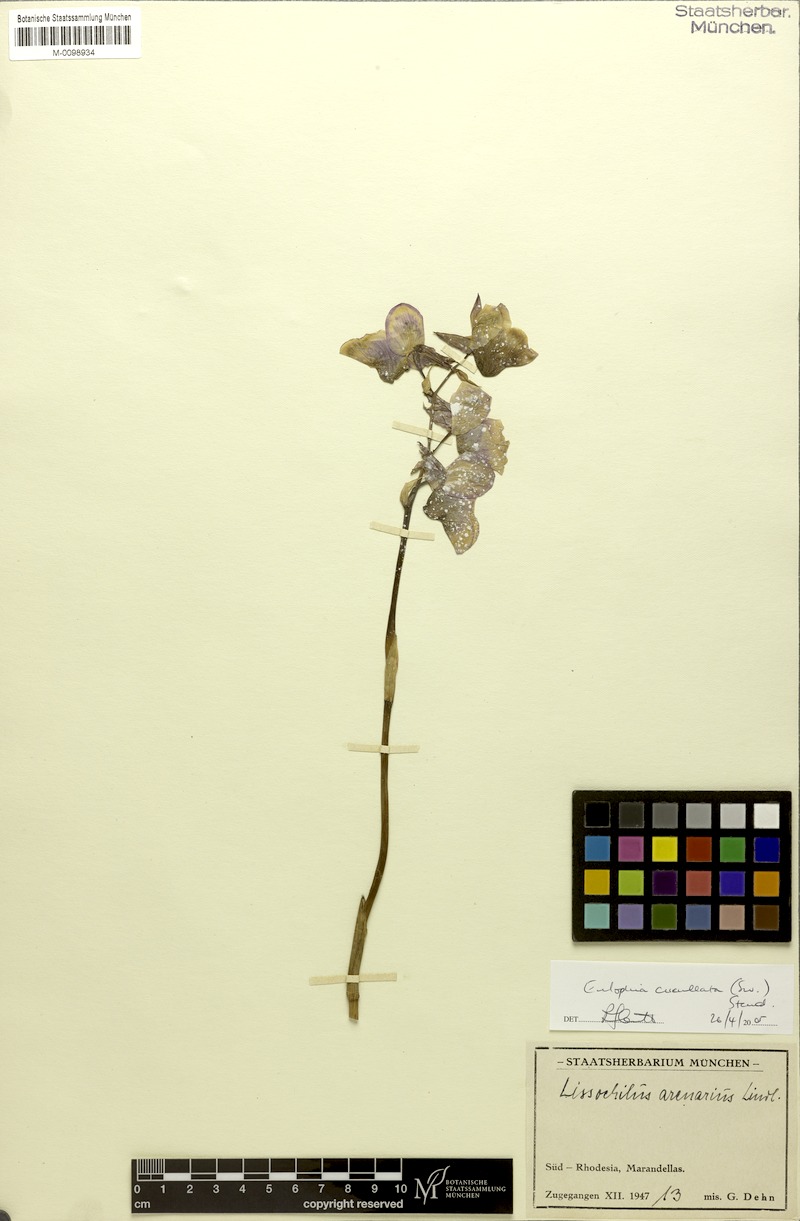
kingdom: Plantae
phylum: Tracheophyta
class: Liliopsida
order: Asparagales
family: Orchidaceae
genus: Eulophia
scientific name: Eulophia cucullata
